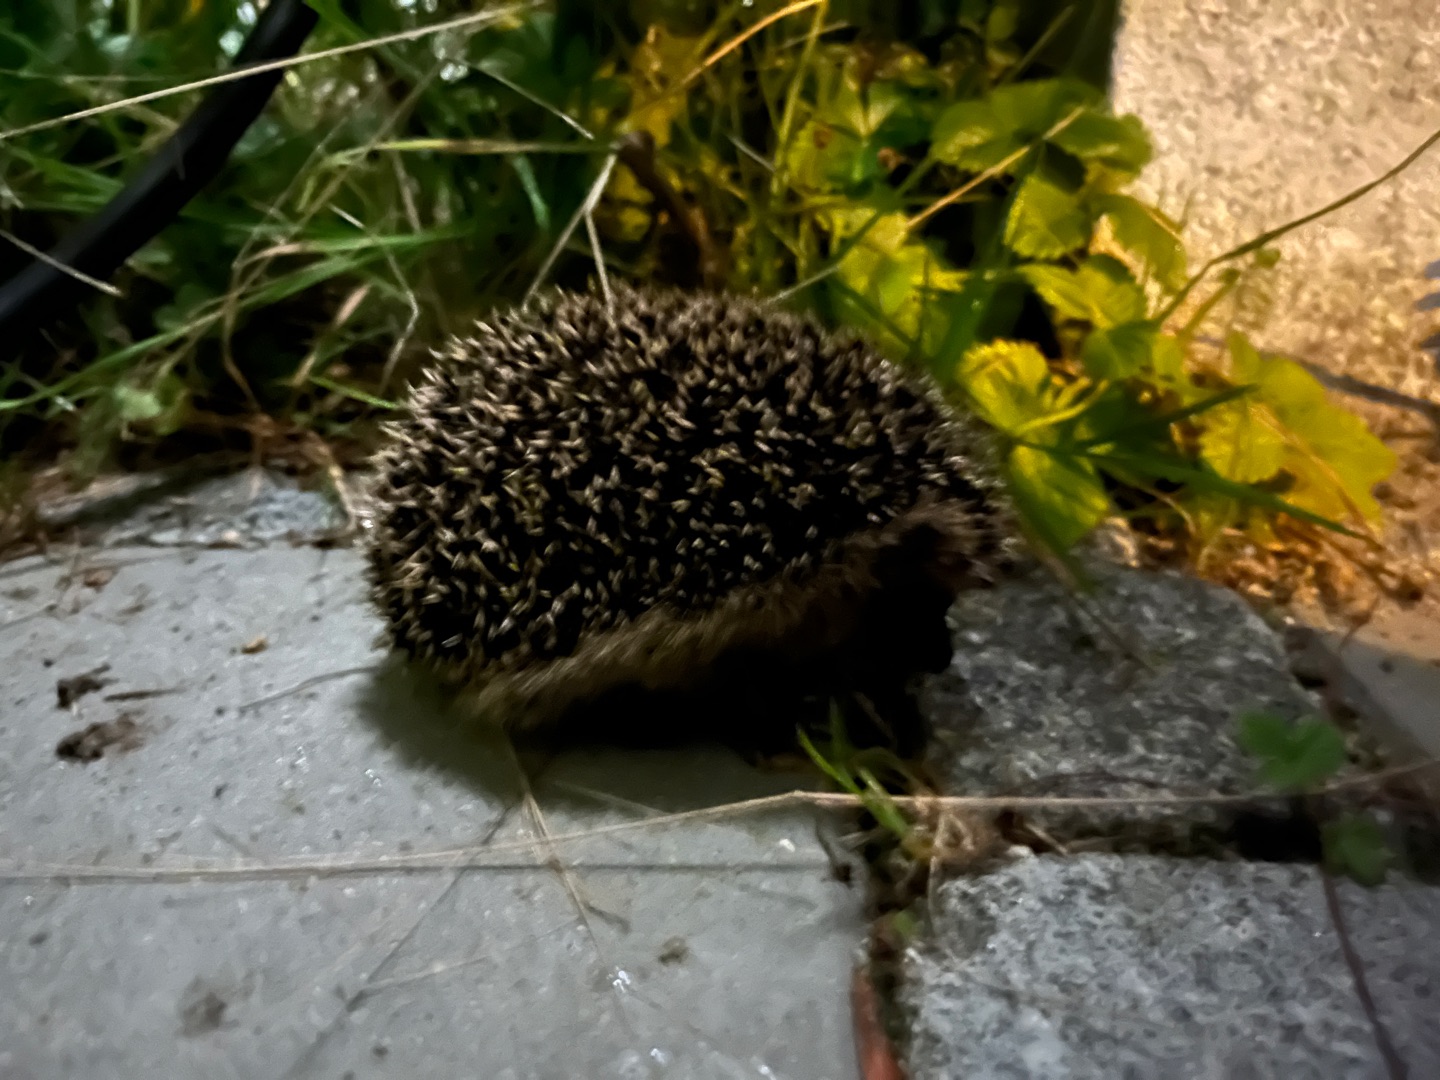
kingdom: Animalia
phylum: Chordata
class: Mammalia
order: Erinaceomorpha
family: Erinaceidae
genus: Erinaceus
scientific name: Erinaceus europaeus
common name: Pindsvin
